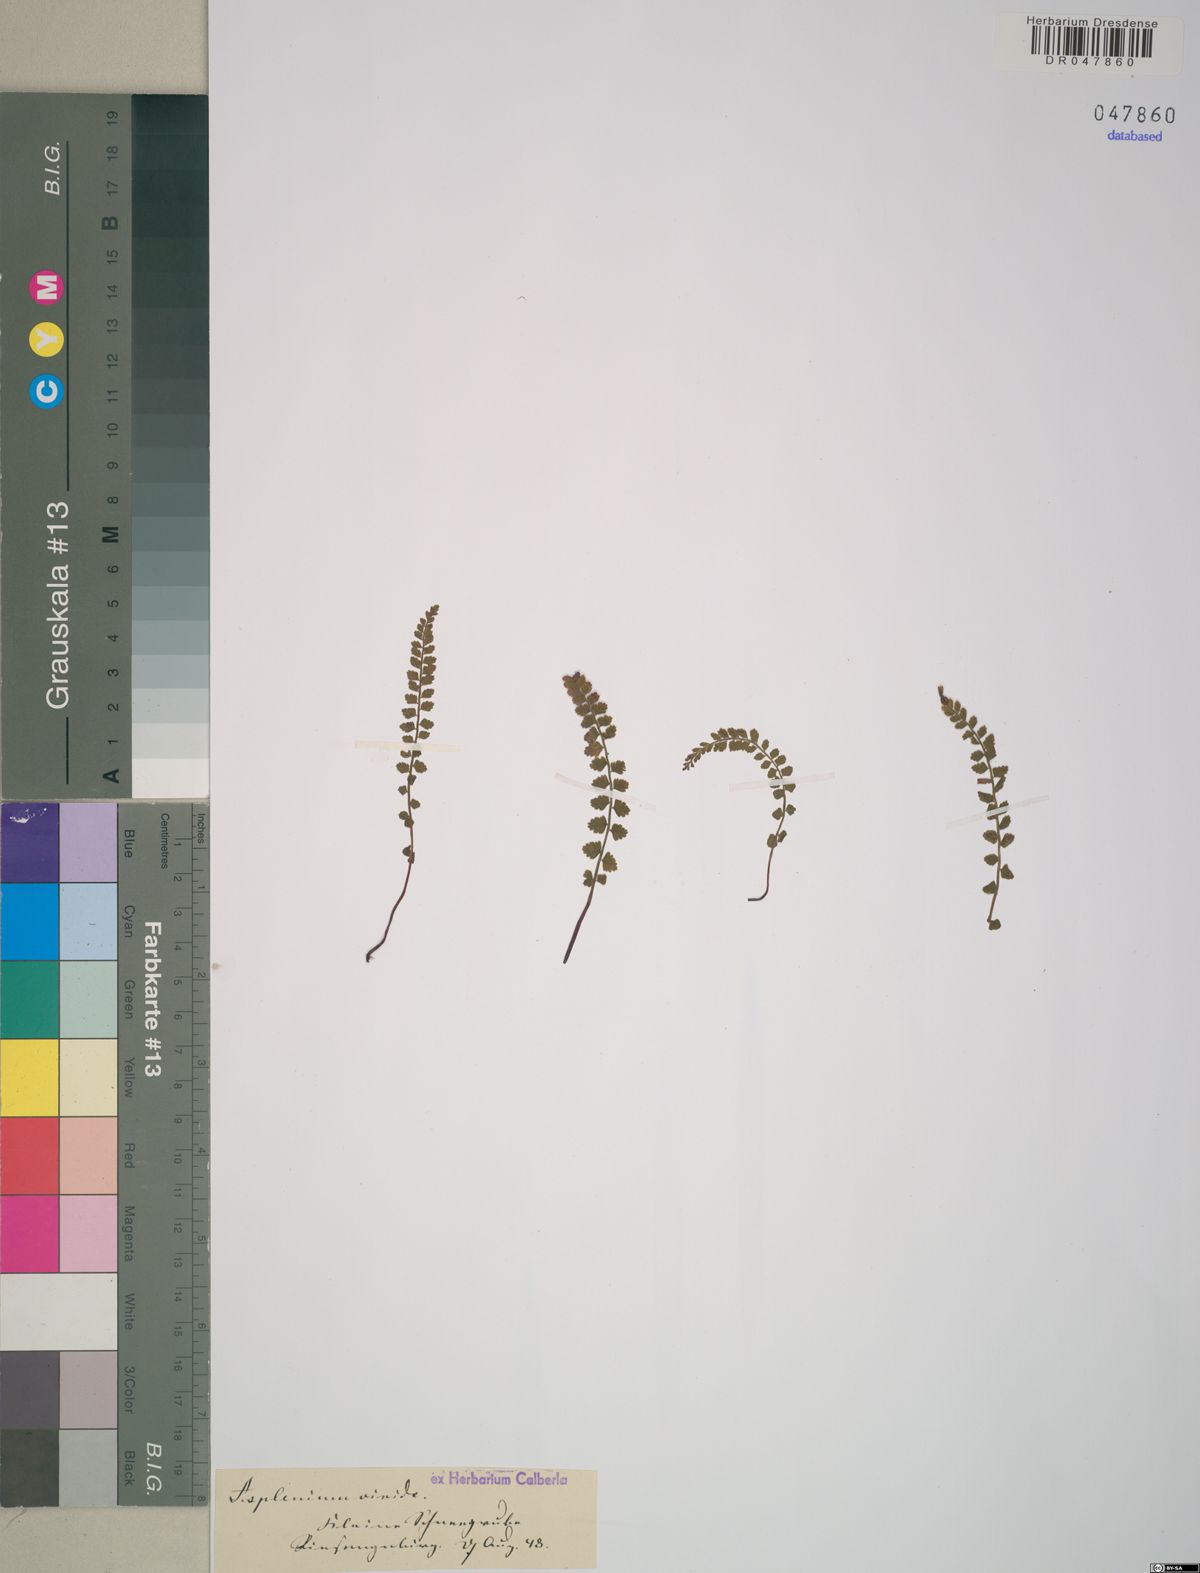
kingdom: Plantae
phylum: Tracheophyta
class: Polypodiopsida
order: Polypodiales
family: Aspleniaceae
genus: Asplenium
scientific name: Asplenium viride
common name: Green spleenwort
